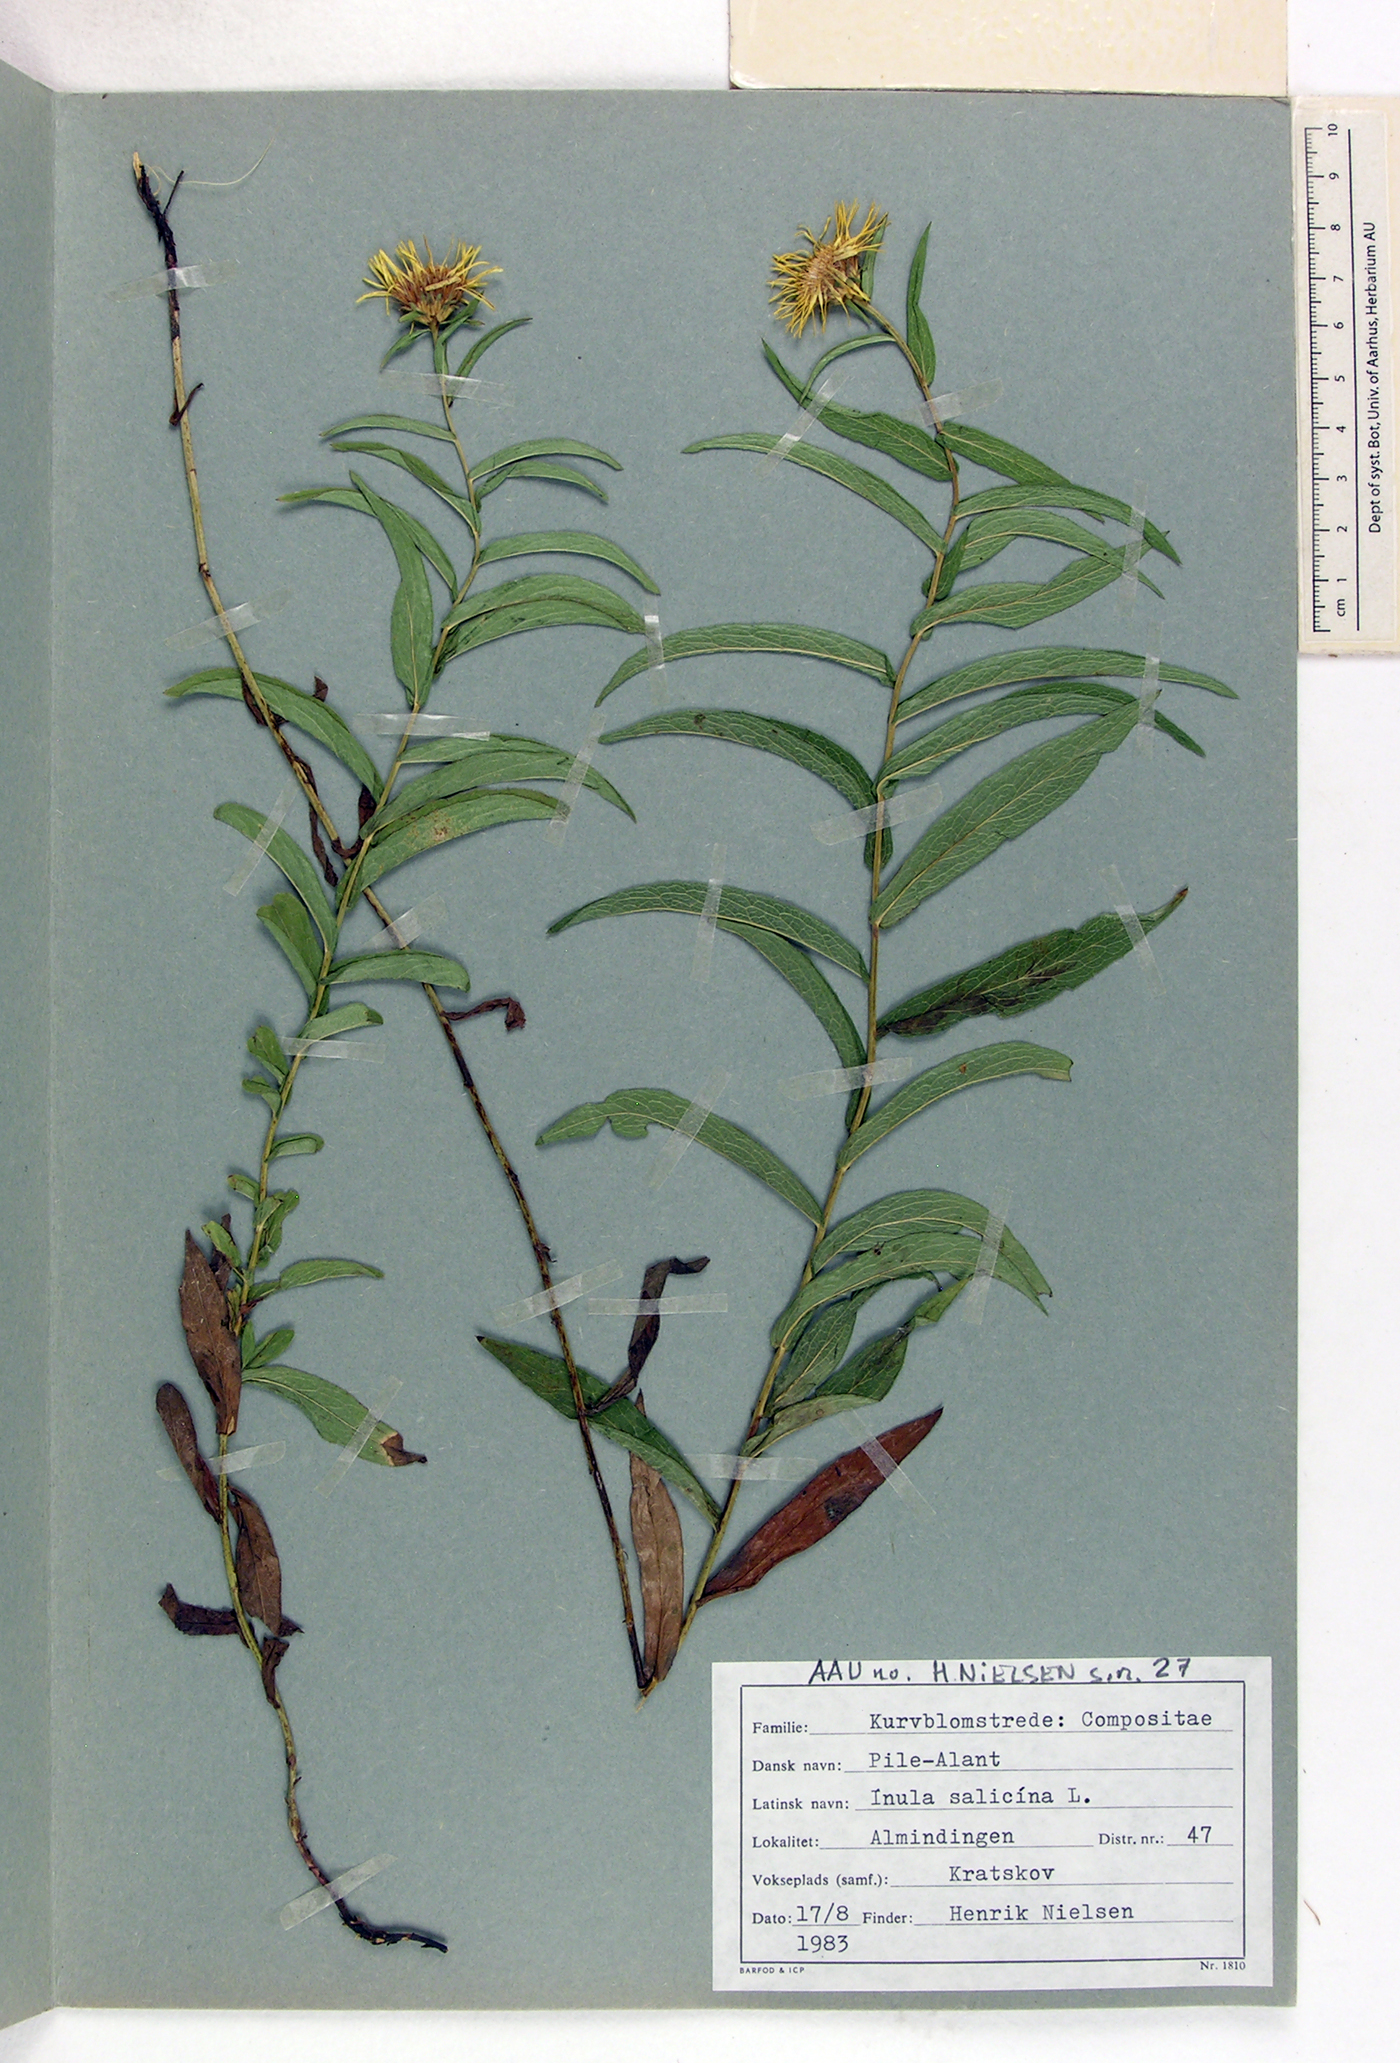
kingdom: Plantae
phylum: Tracheophyta
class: Magnoliopsida
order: Asterales
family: Asteraceae
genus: Pentanema
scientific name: Pentanema salicinum
